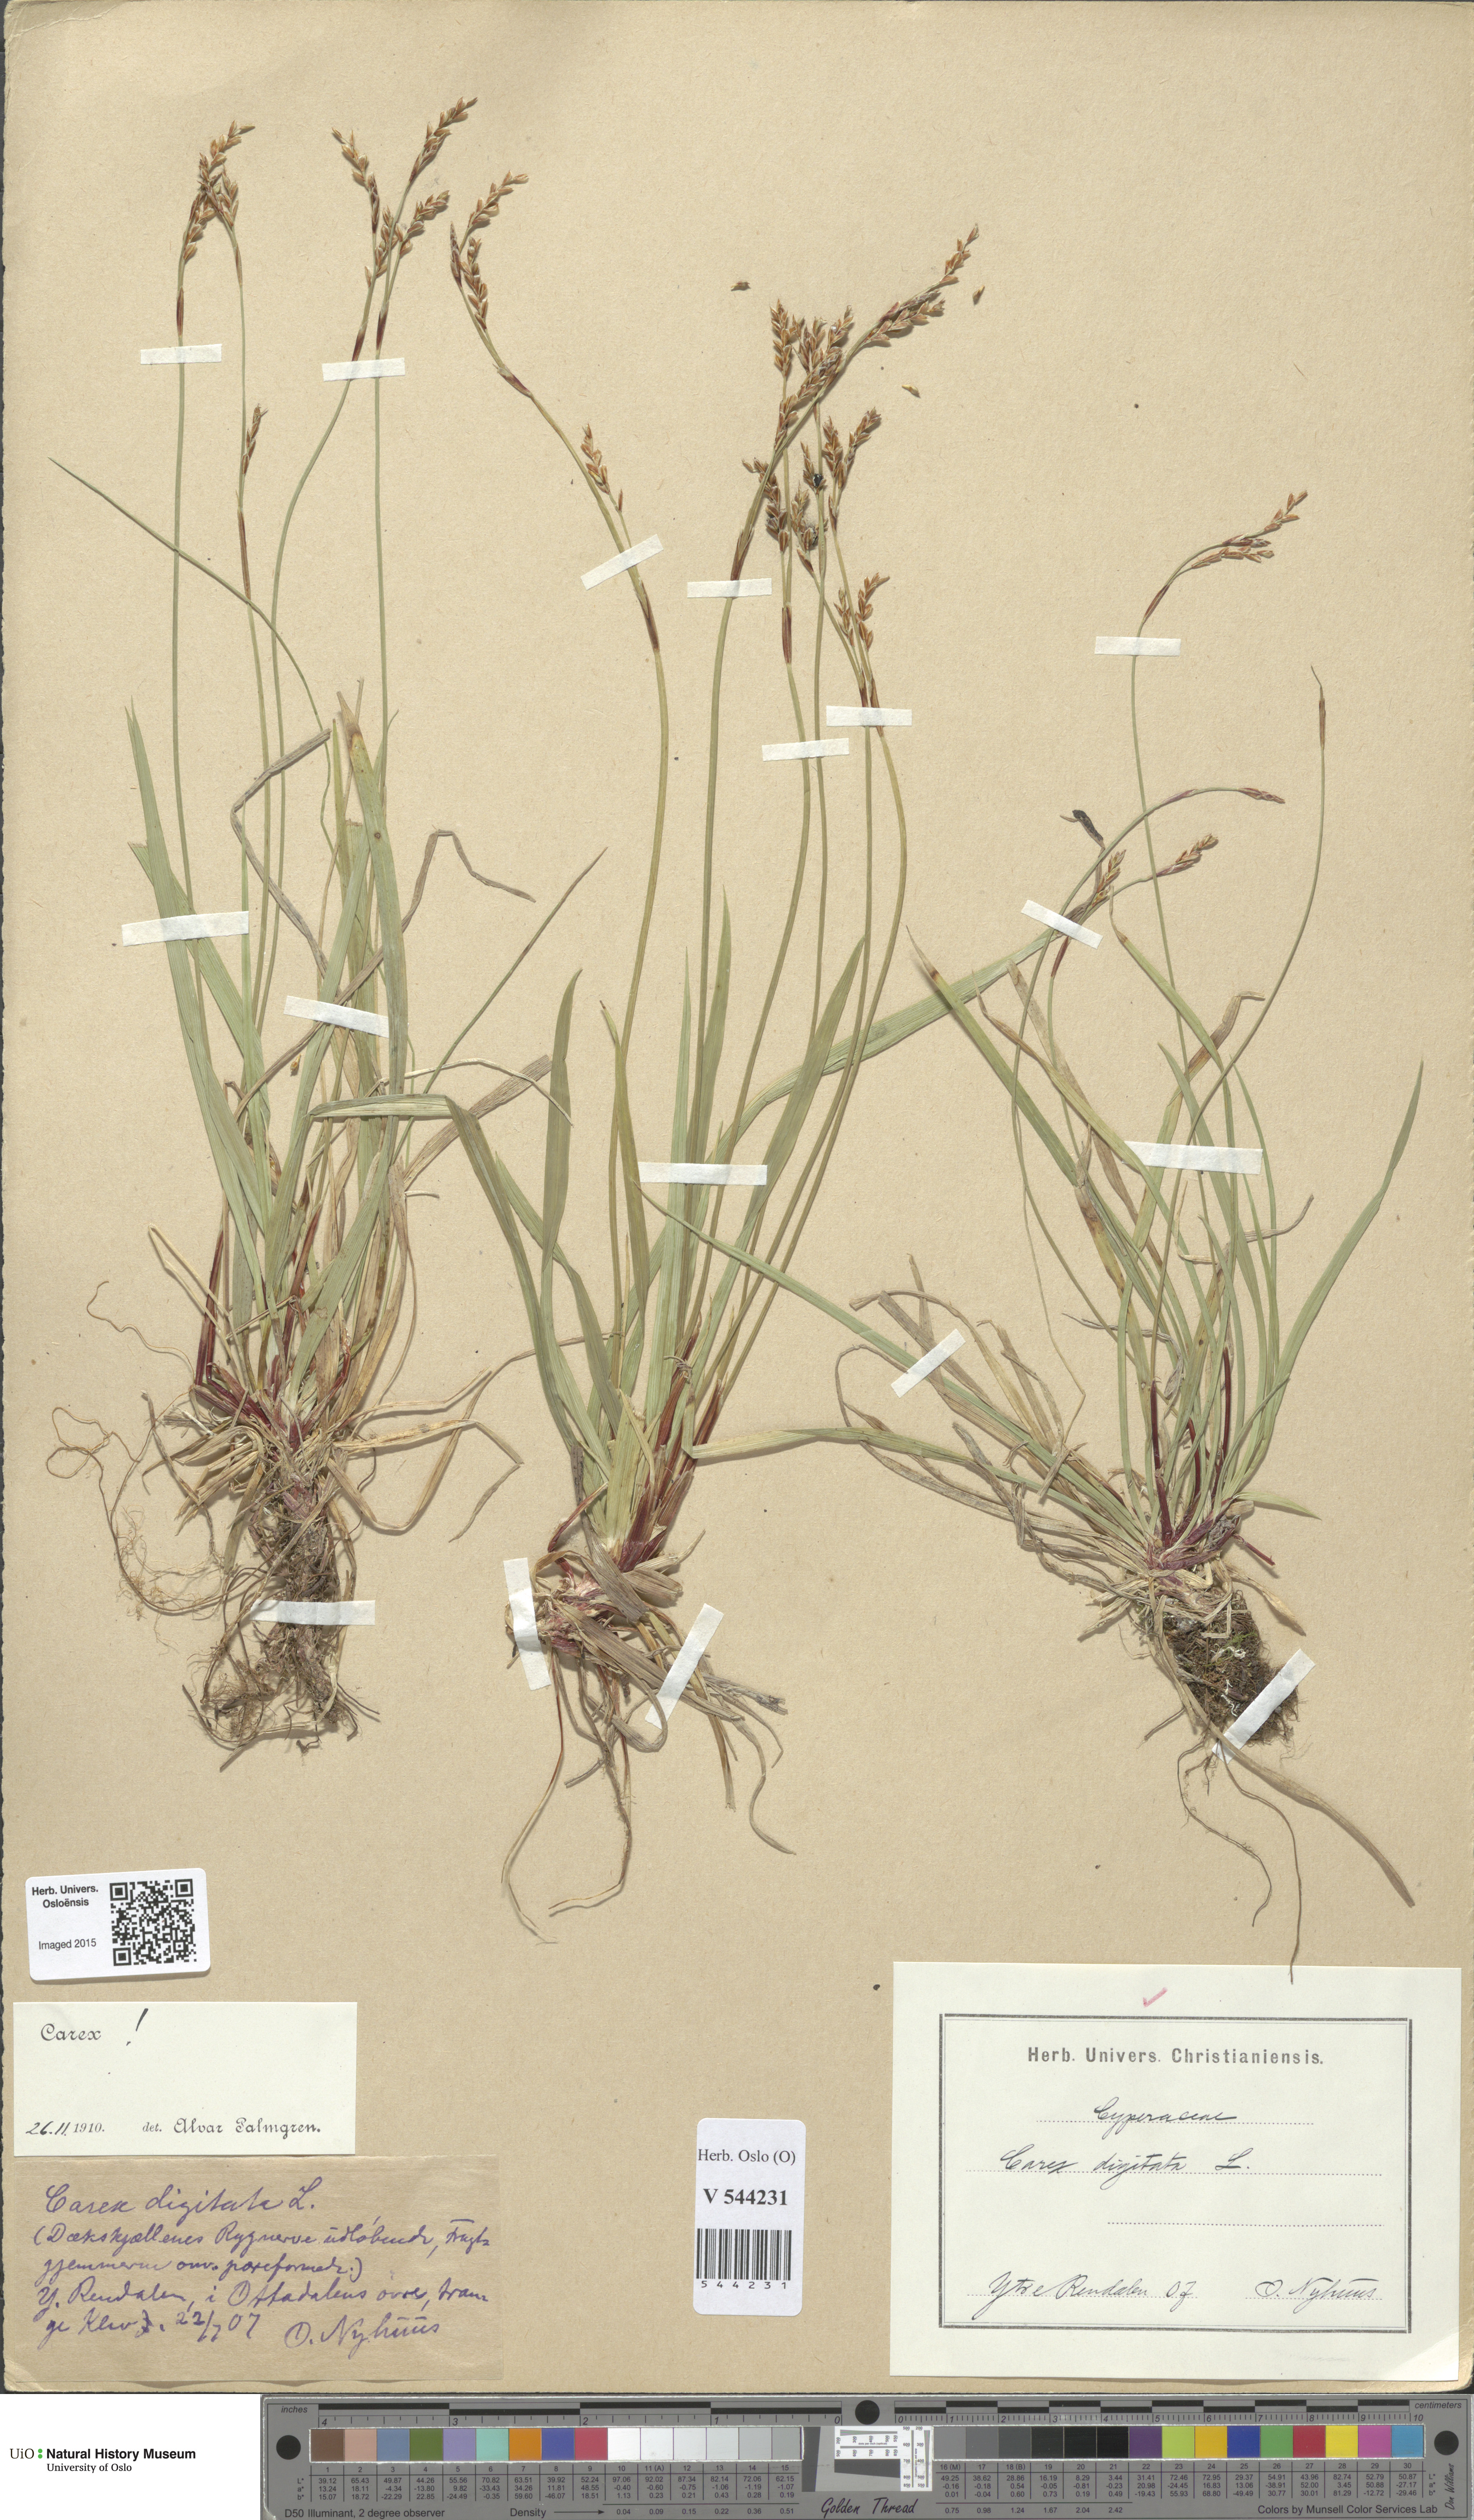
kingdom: Plantae
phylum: Tracheophyta
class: Liliopsida
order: Poales
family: Cyperaceae
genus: Carex
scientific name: Carex digitata
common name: Fingered sedge
